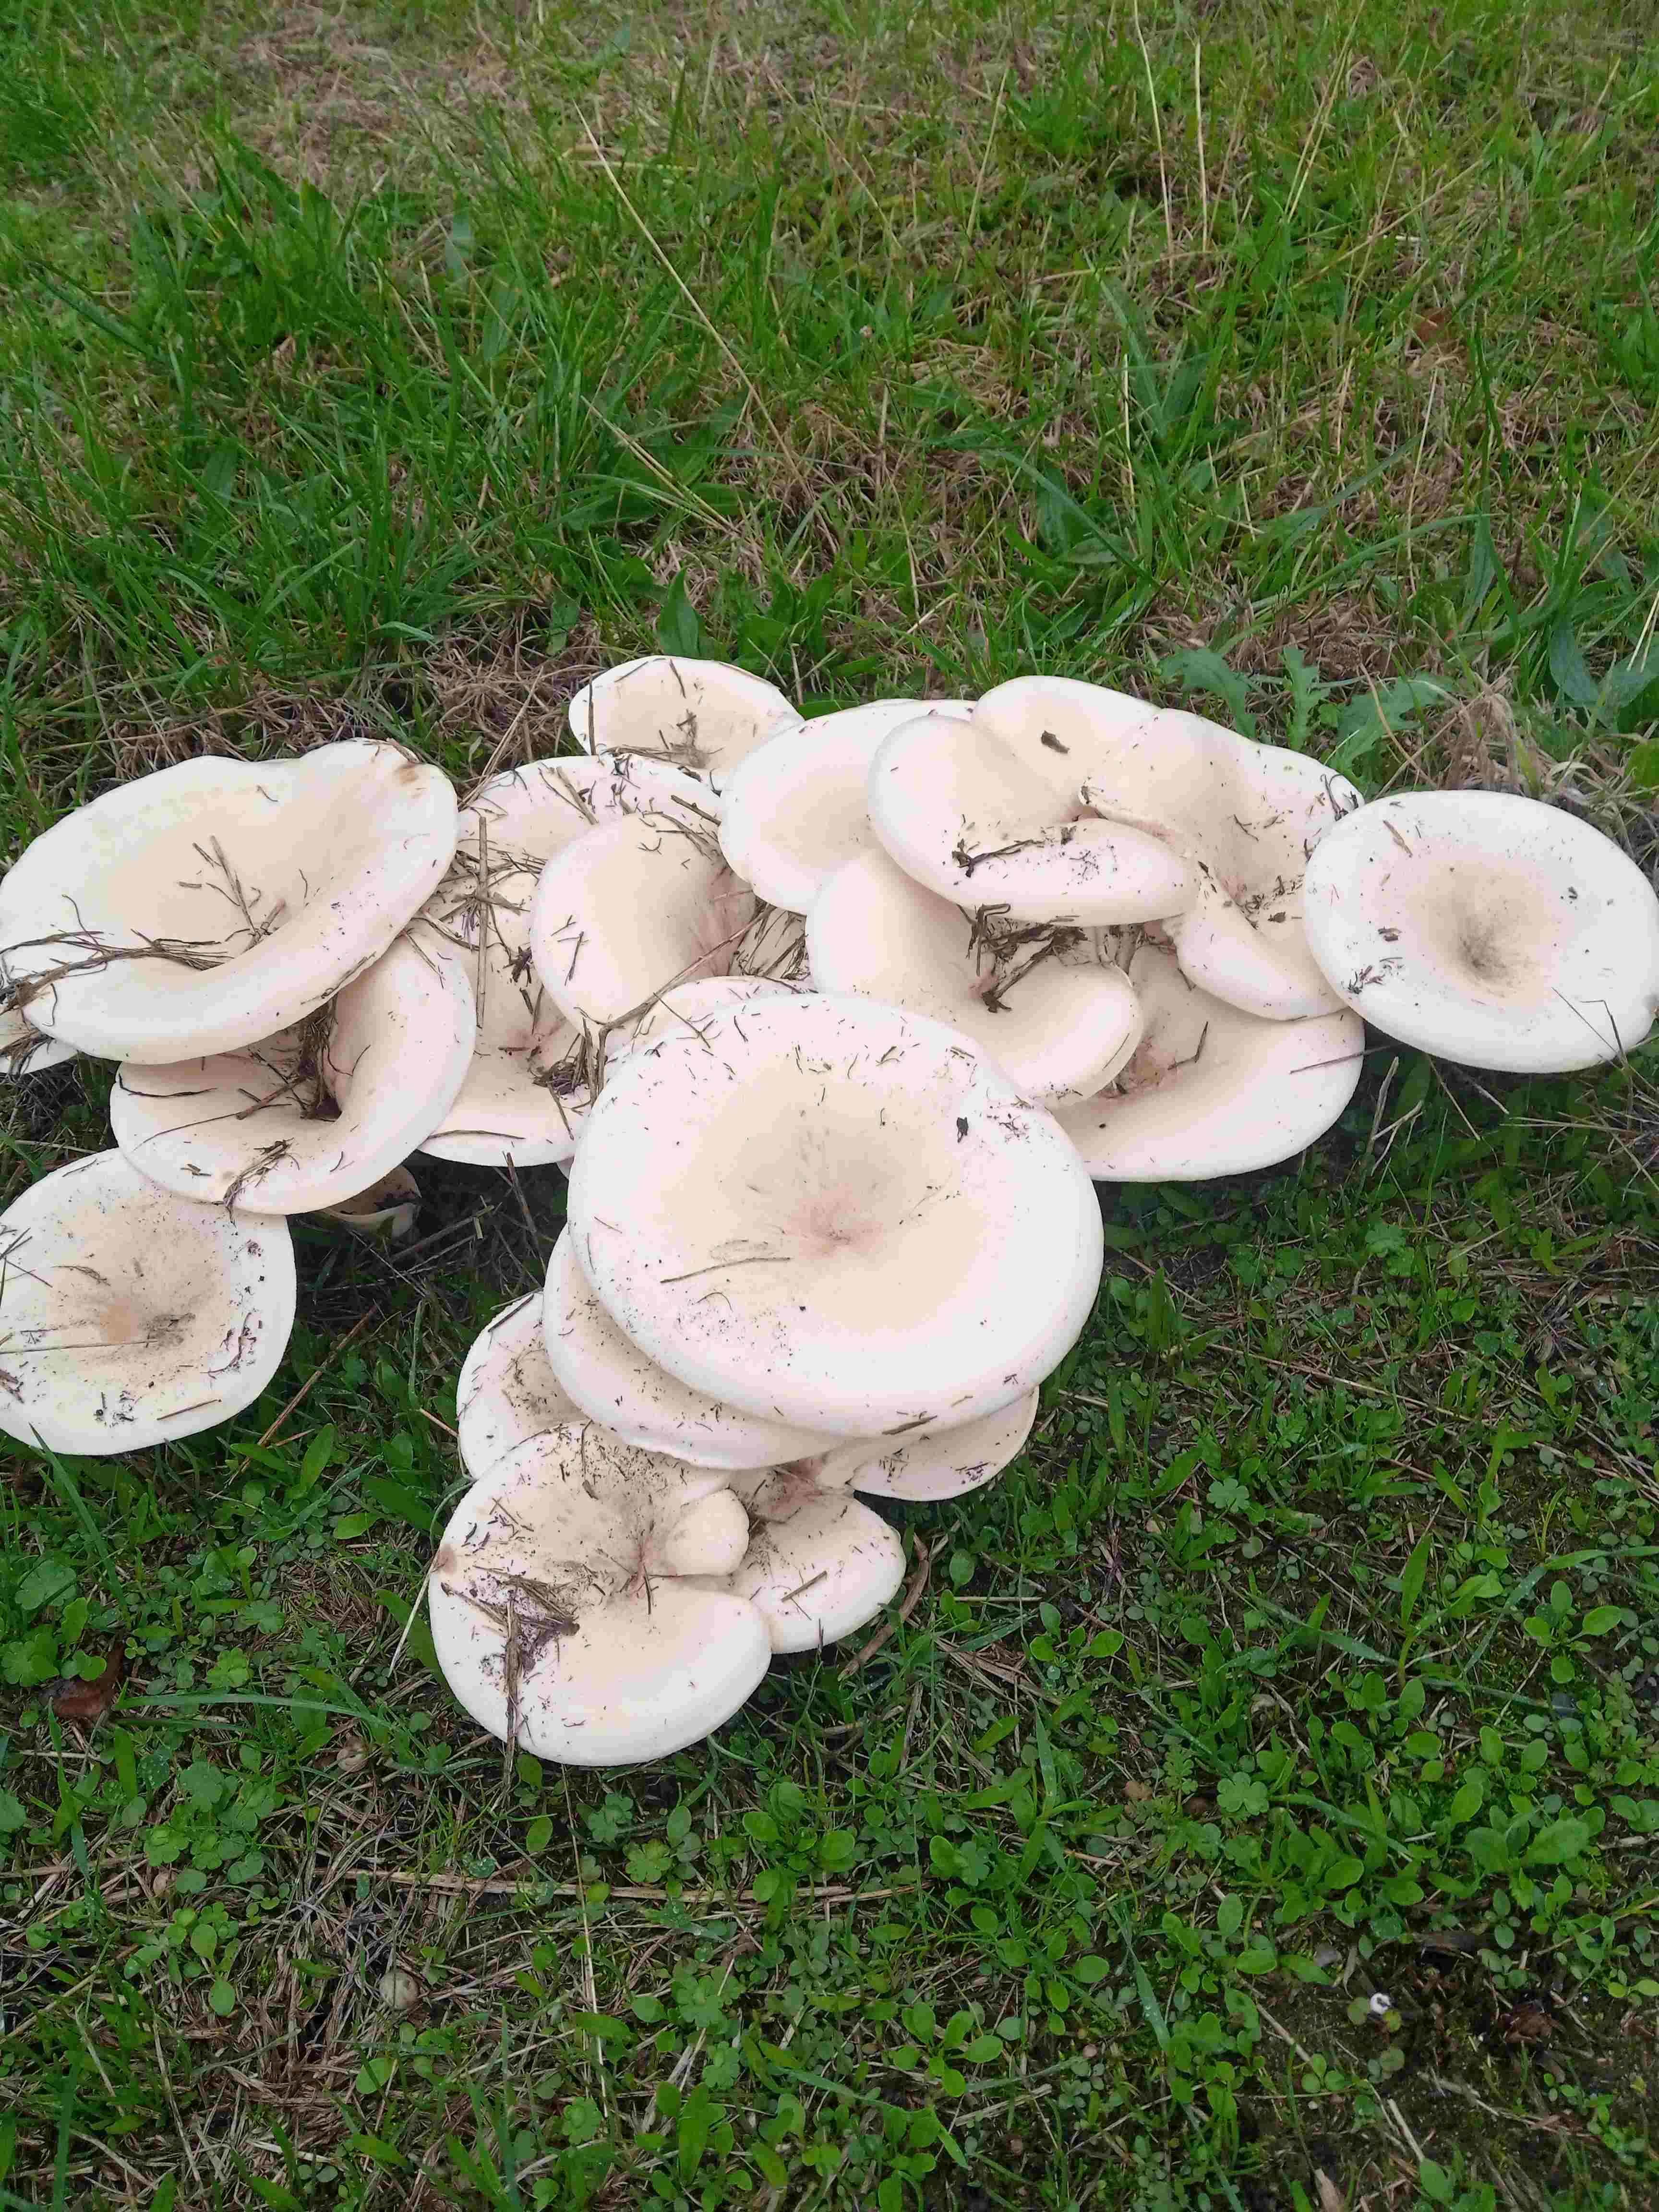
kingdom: Fungi
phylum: Basidiomycota
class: Agaricomycetes
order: Agaricales
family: Tricholomataceae
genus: Aspropaxillus
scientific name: Aspropaxillus giganteus
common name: kæmpe-tragtridderhat
